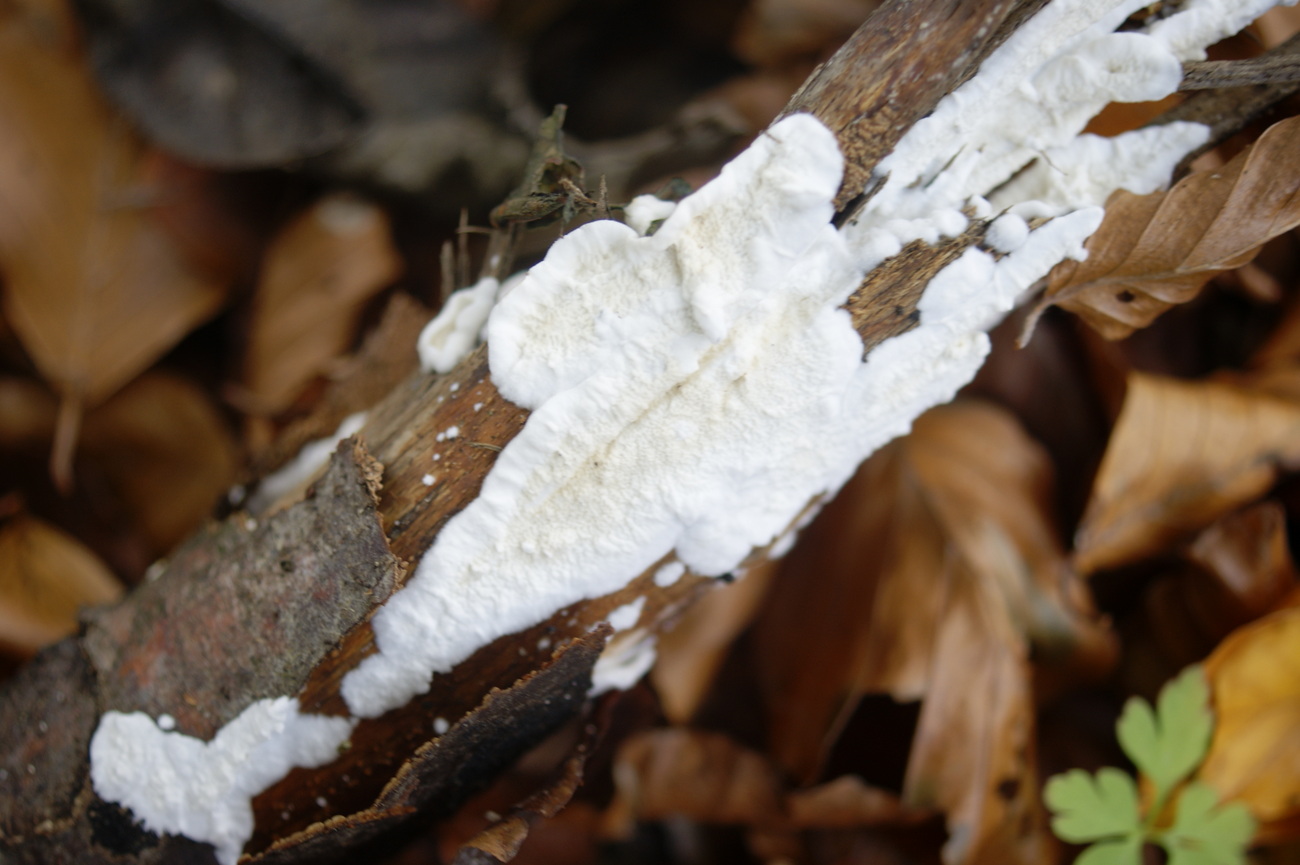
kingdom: Fungi
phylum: Basidiomycota
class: Agaricomycetes
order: Polyporales
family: Irpicaceae
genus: Byssomerulius
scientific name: Byssomerulius corium
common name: læder-åresvamp
